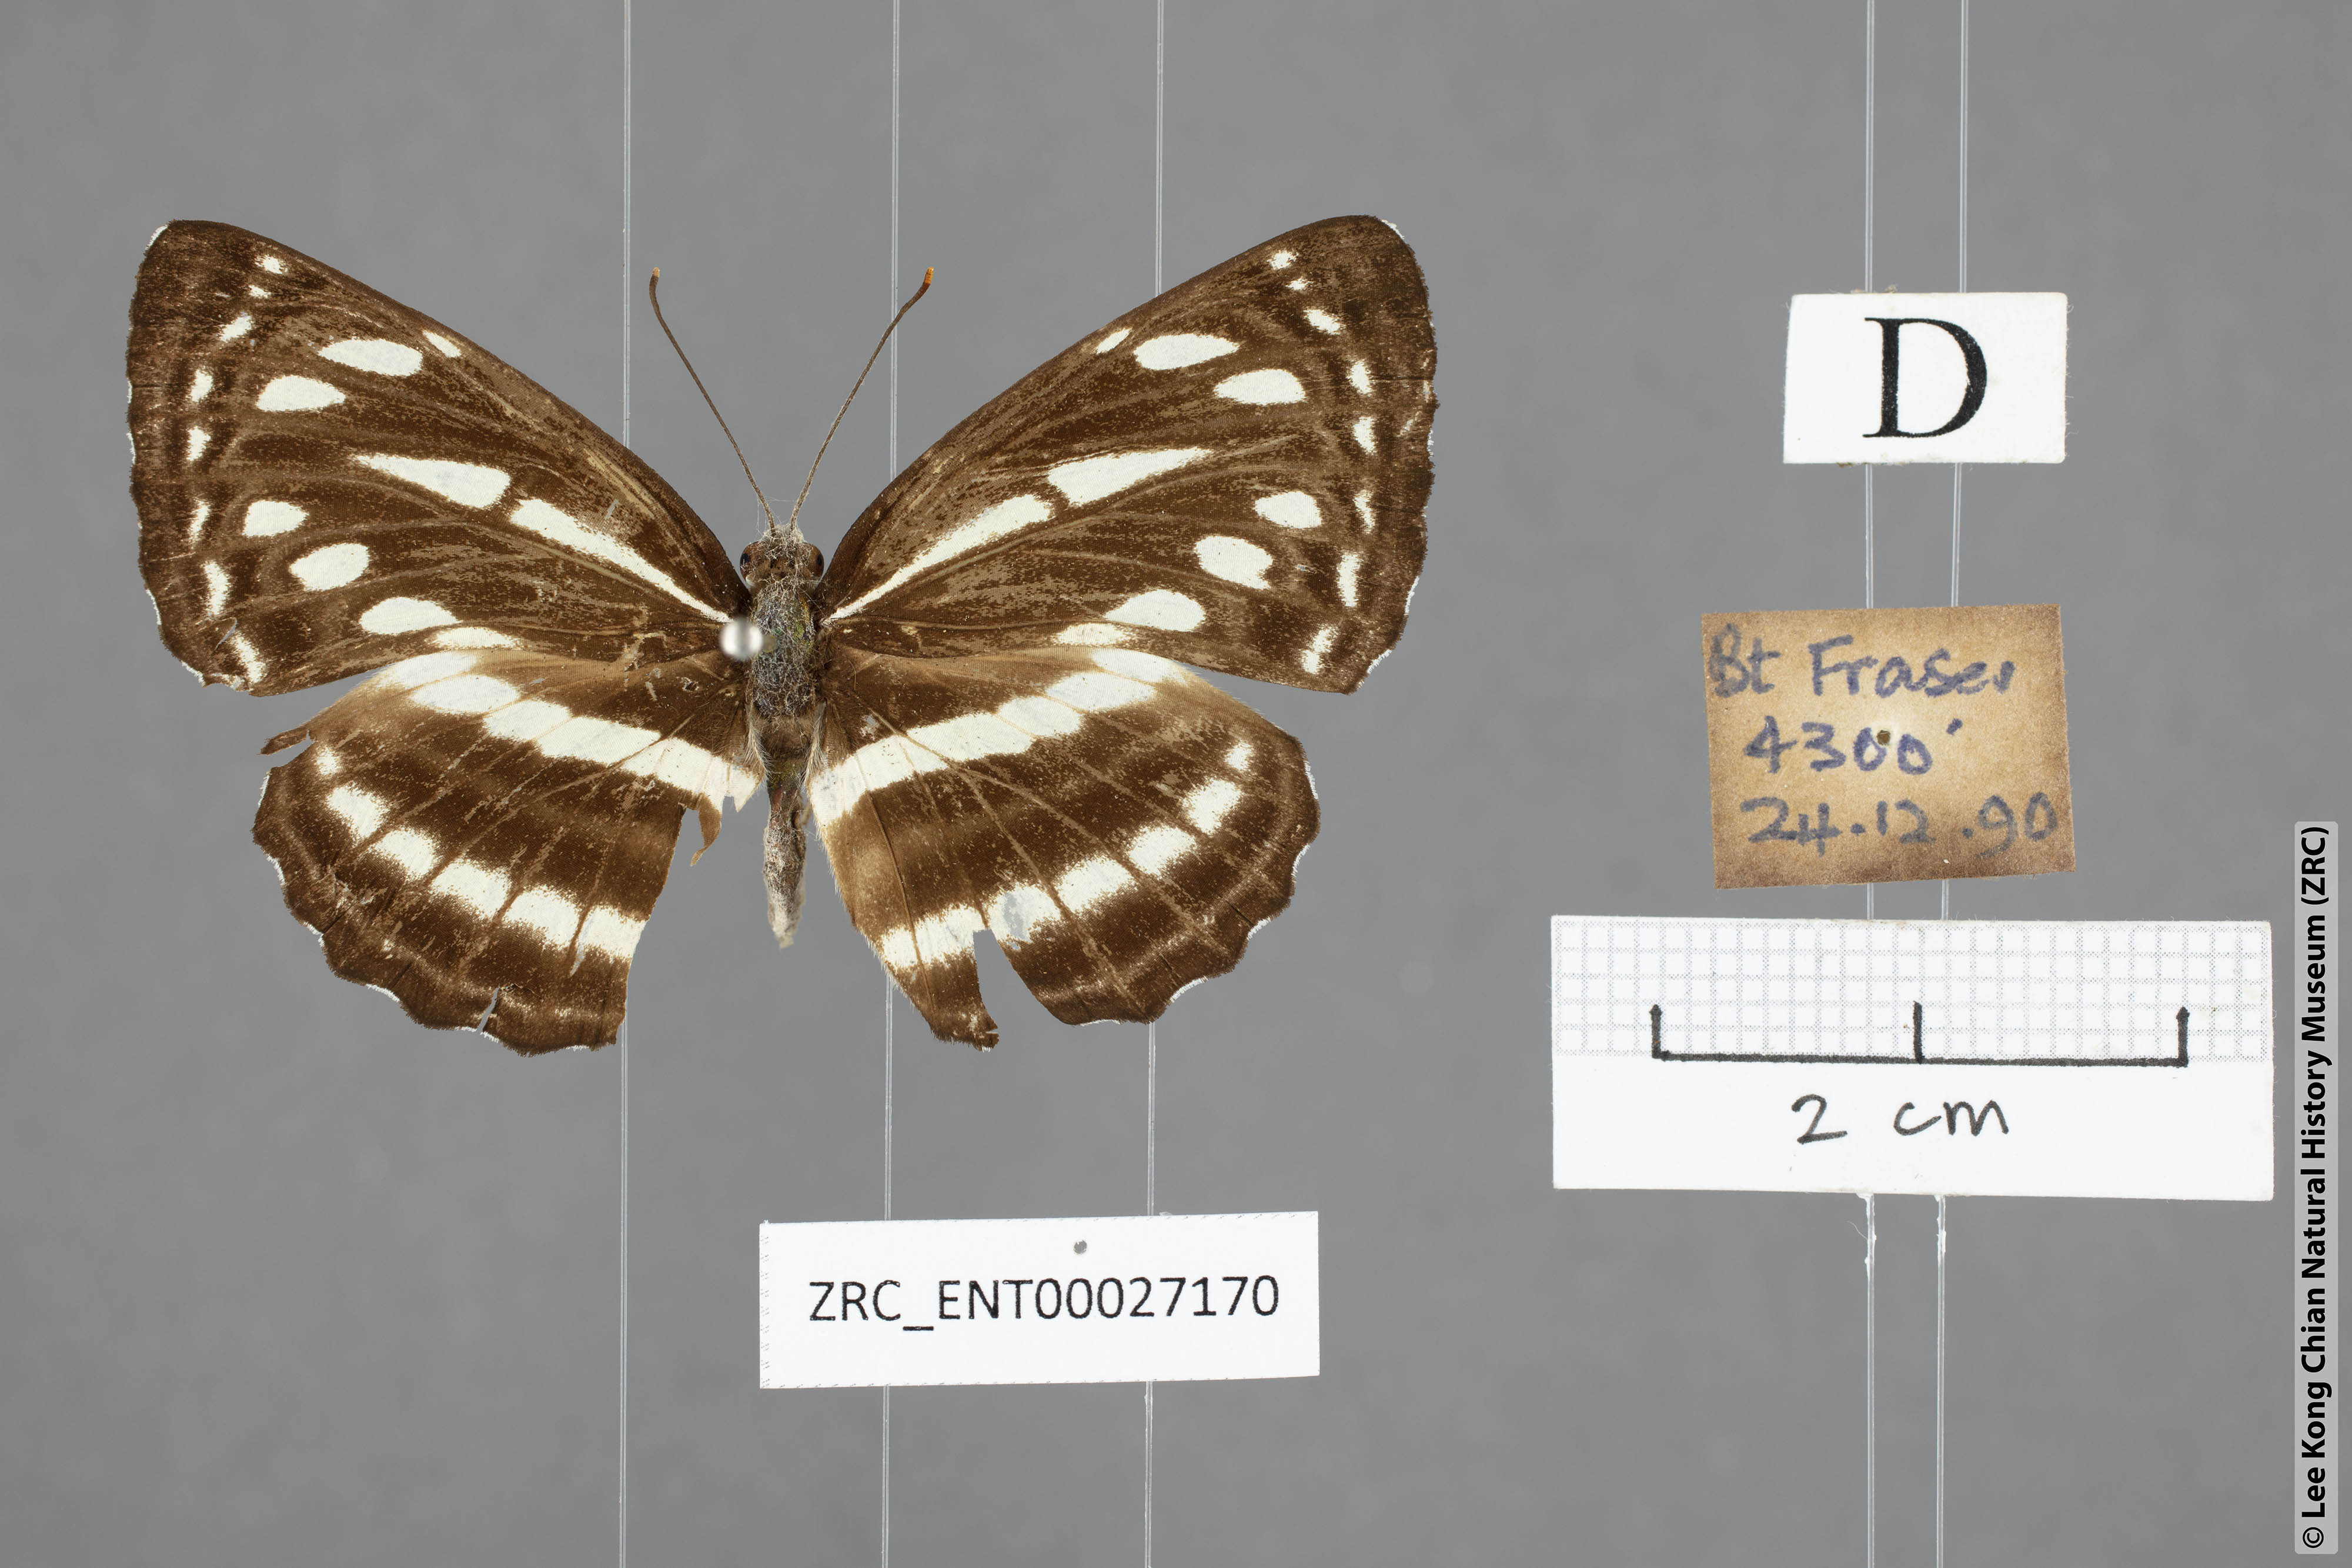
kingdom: Animalia
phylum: Arthropoda
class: Insecta
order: Lepidoptera
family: Nymphalidae
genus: Neptis
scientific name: Neptis soma
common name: Cream-spotted sailor
